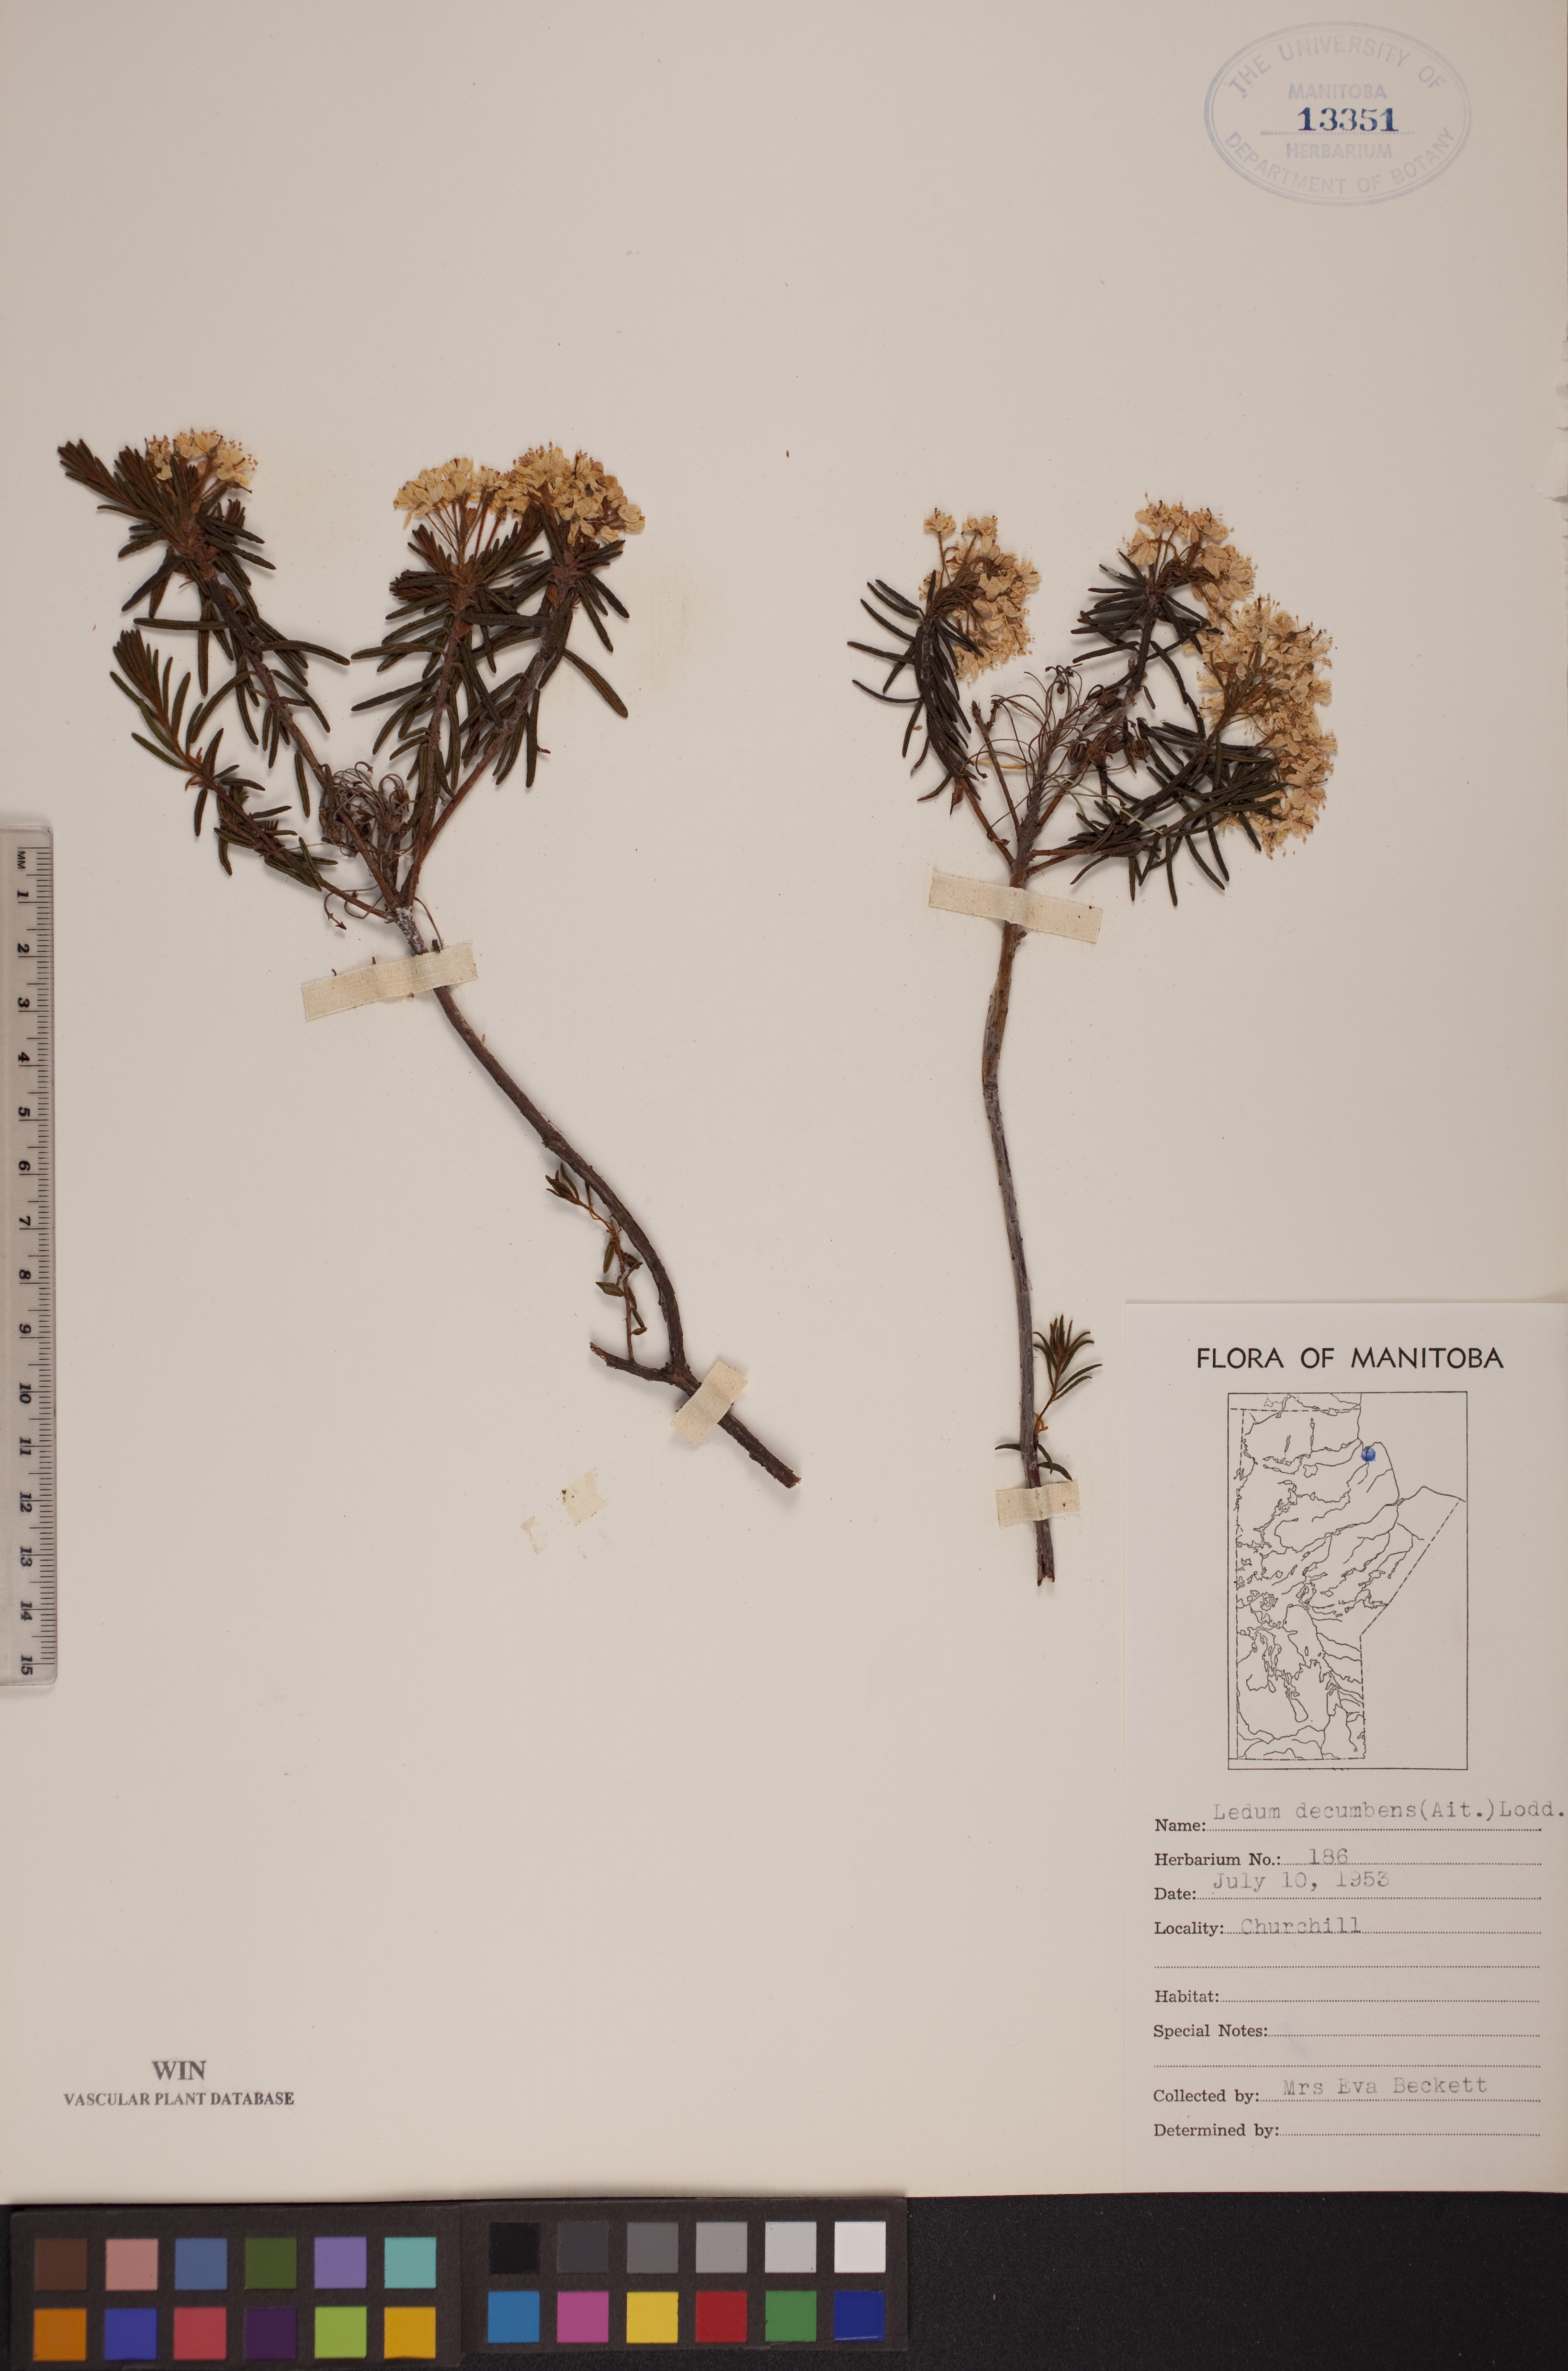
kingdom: Plantae
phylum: Tracheophyta
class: Magnoliopsida
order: Ericales
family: Ericaceae
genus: Rhododendron
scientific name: Rhododendron tomentosum
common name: Marsh labrador tea
